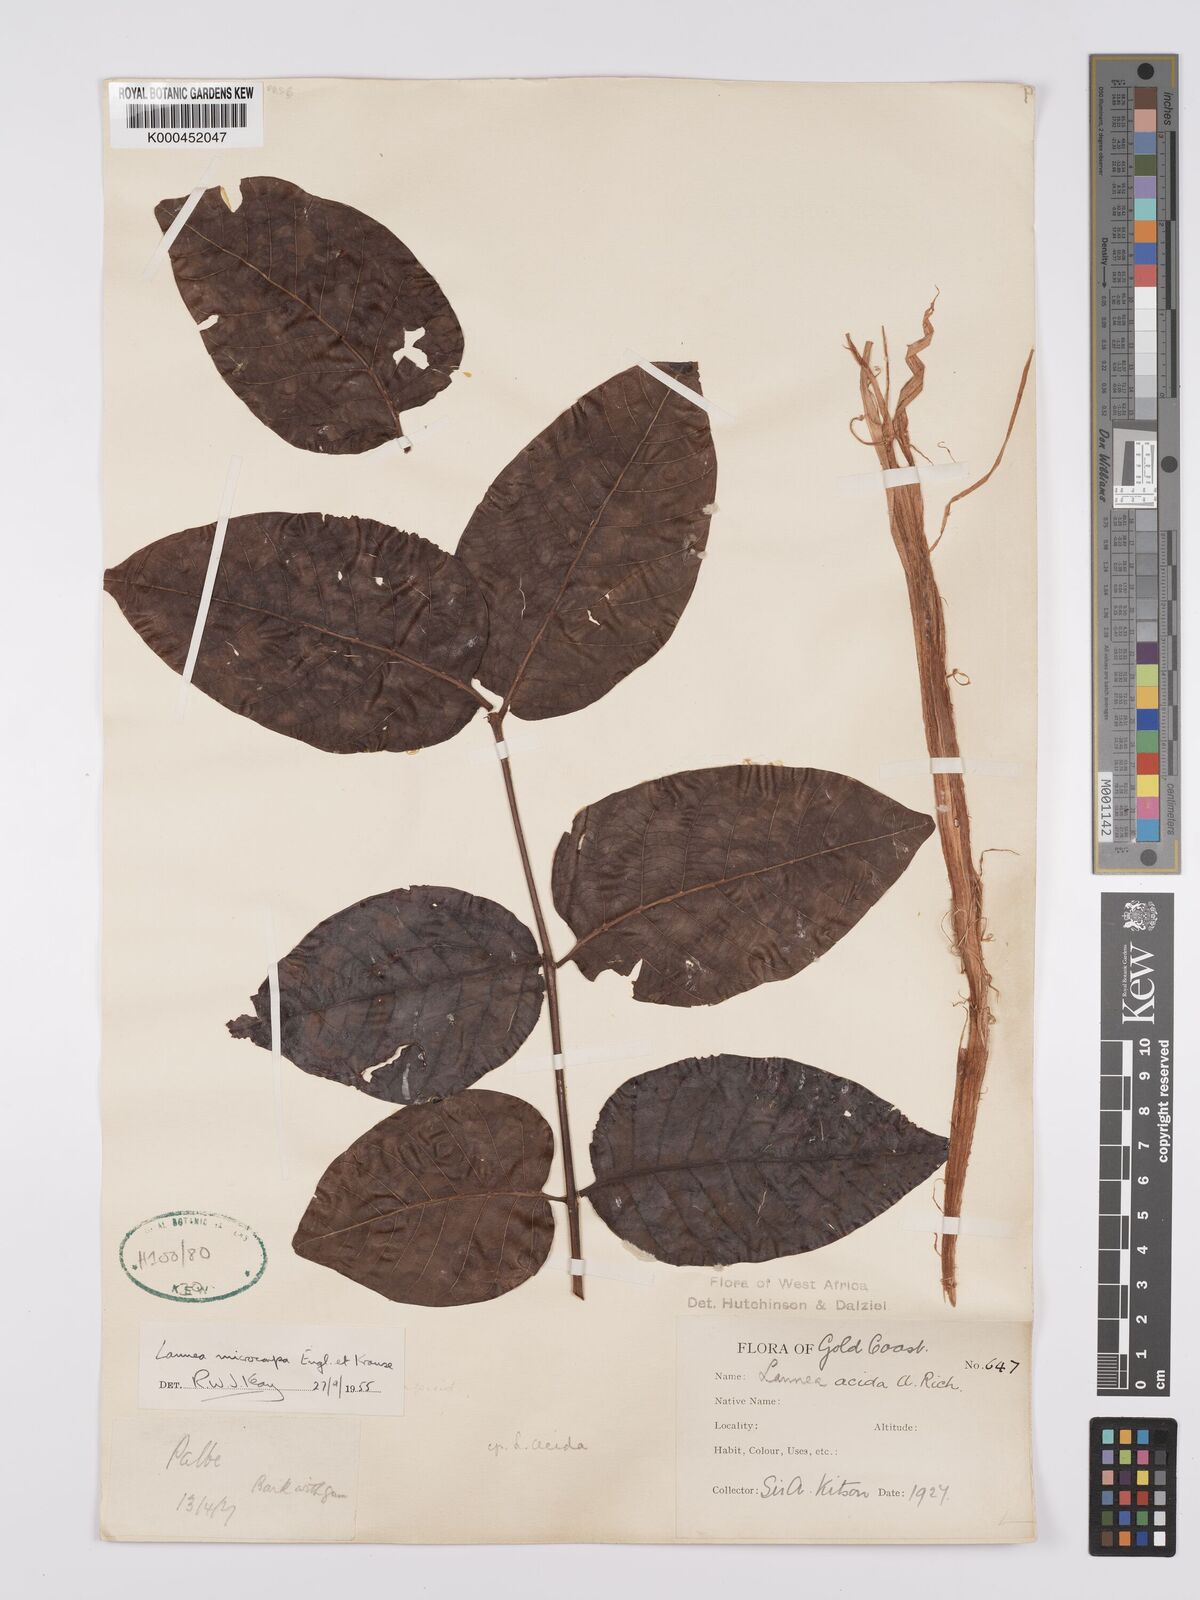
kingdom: Plantae
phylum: Tracheophyta
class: Magnoliopsida
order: Sapindales
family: Anacardiaceae
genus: Lannea
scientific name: Lannea microcarpa
